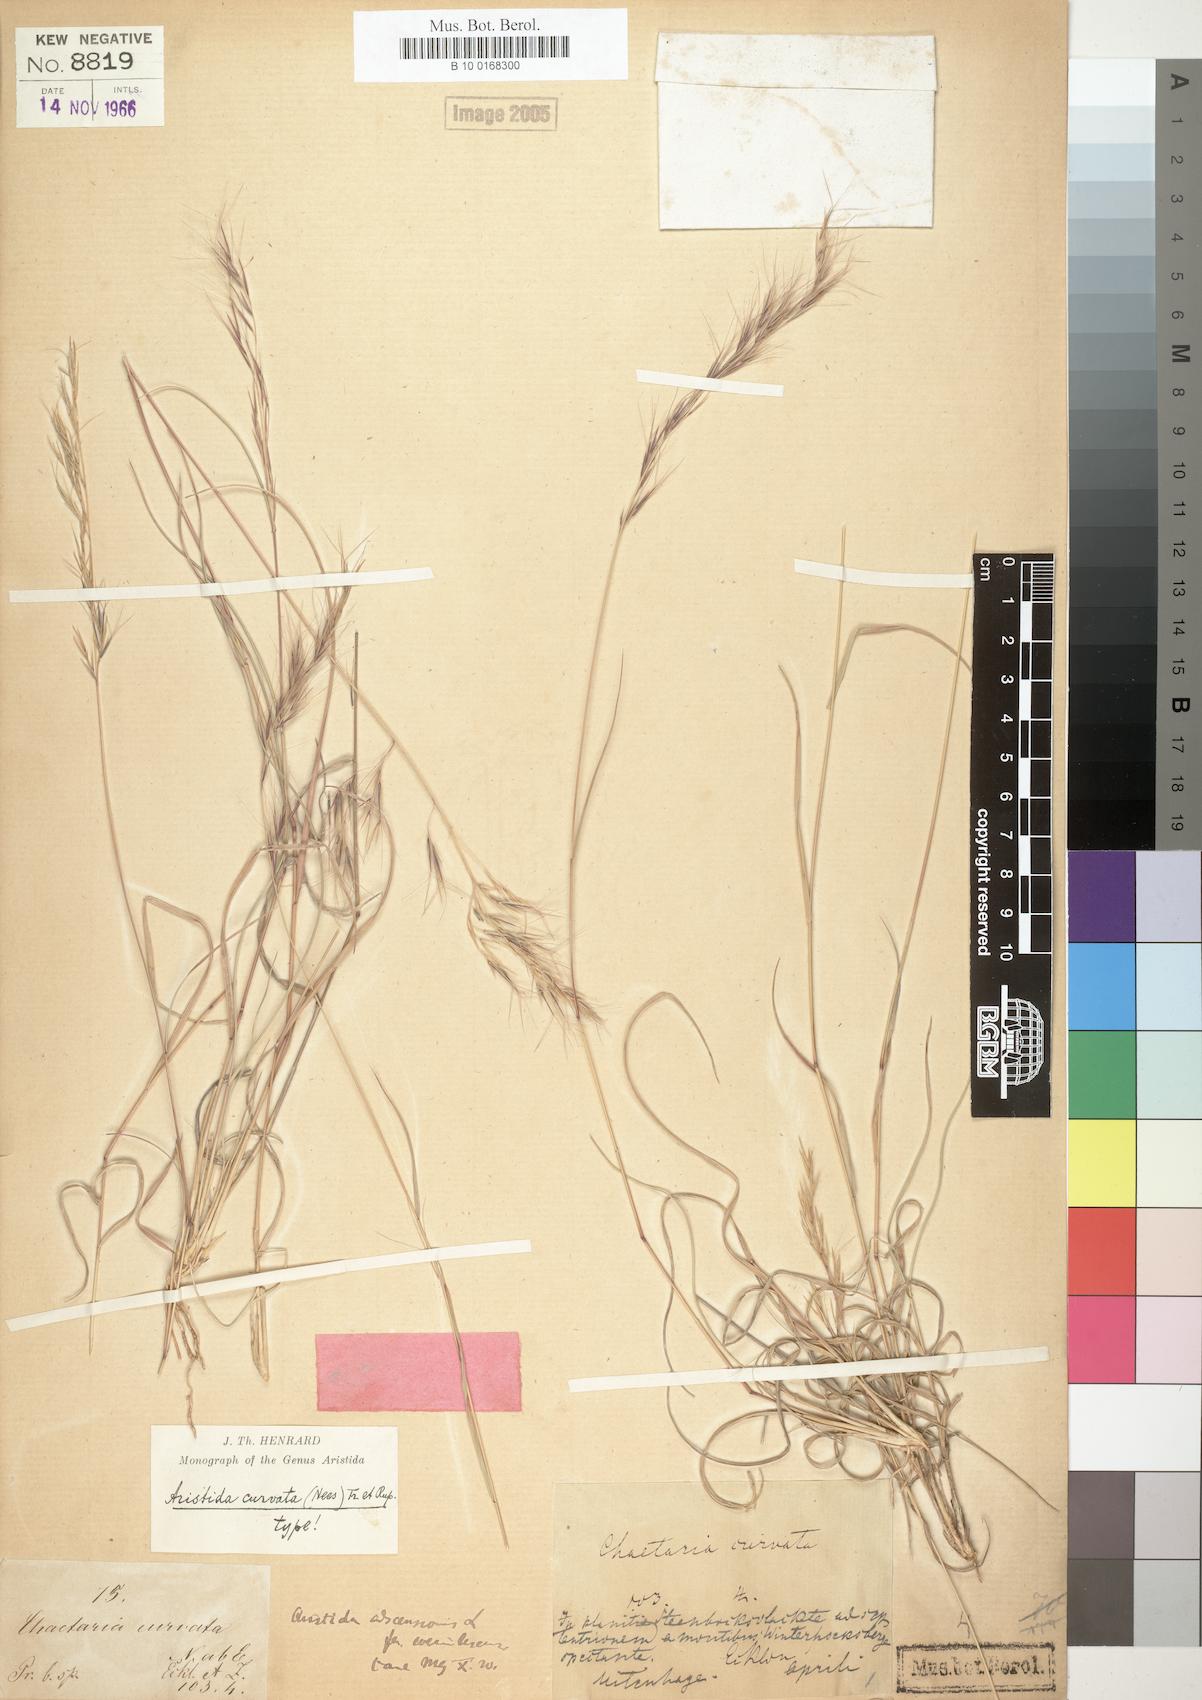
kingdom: Plantae
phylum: Tracheophyta
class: Liliopsida
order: Poales
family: Poaceae
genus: Aristida
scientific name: Aristida adscensionis
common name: Sixweeks threeawn
